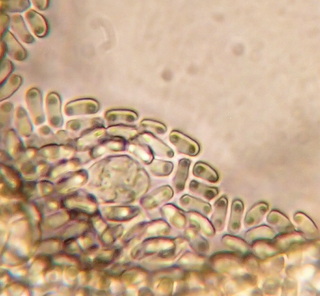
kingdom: Fungi
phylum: Ascomycota
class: Eurotiomycetes
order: Onygenales
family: Onygenaceae
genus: Onygena
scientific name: Onygena corvina
